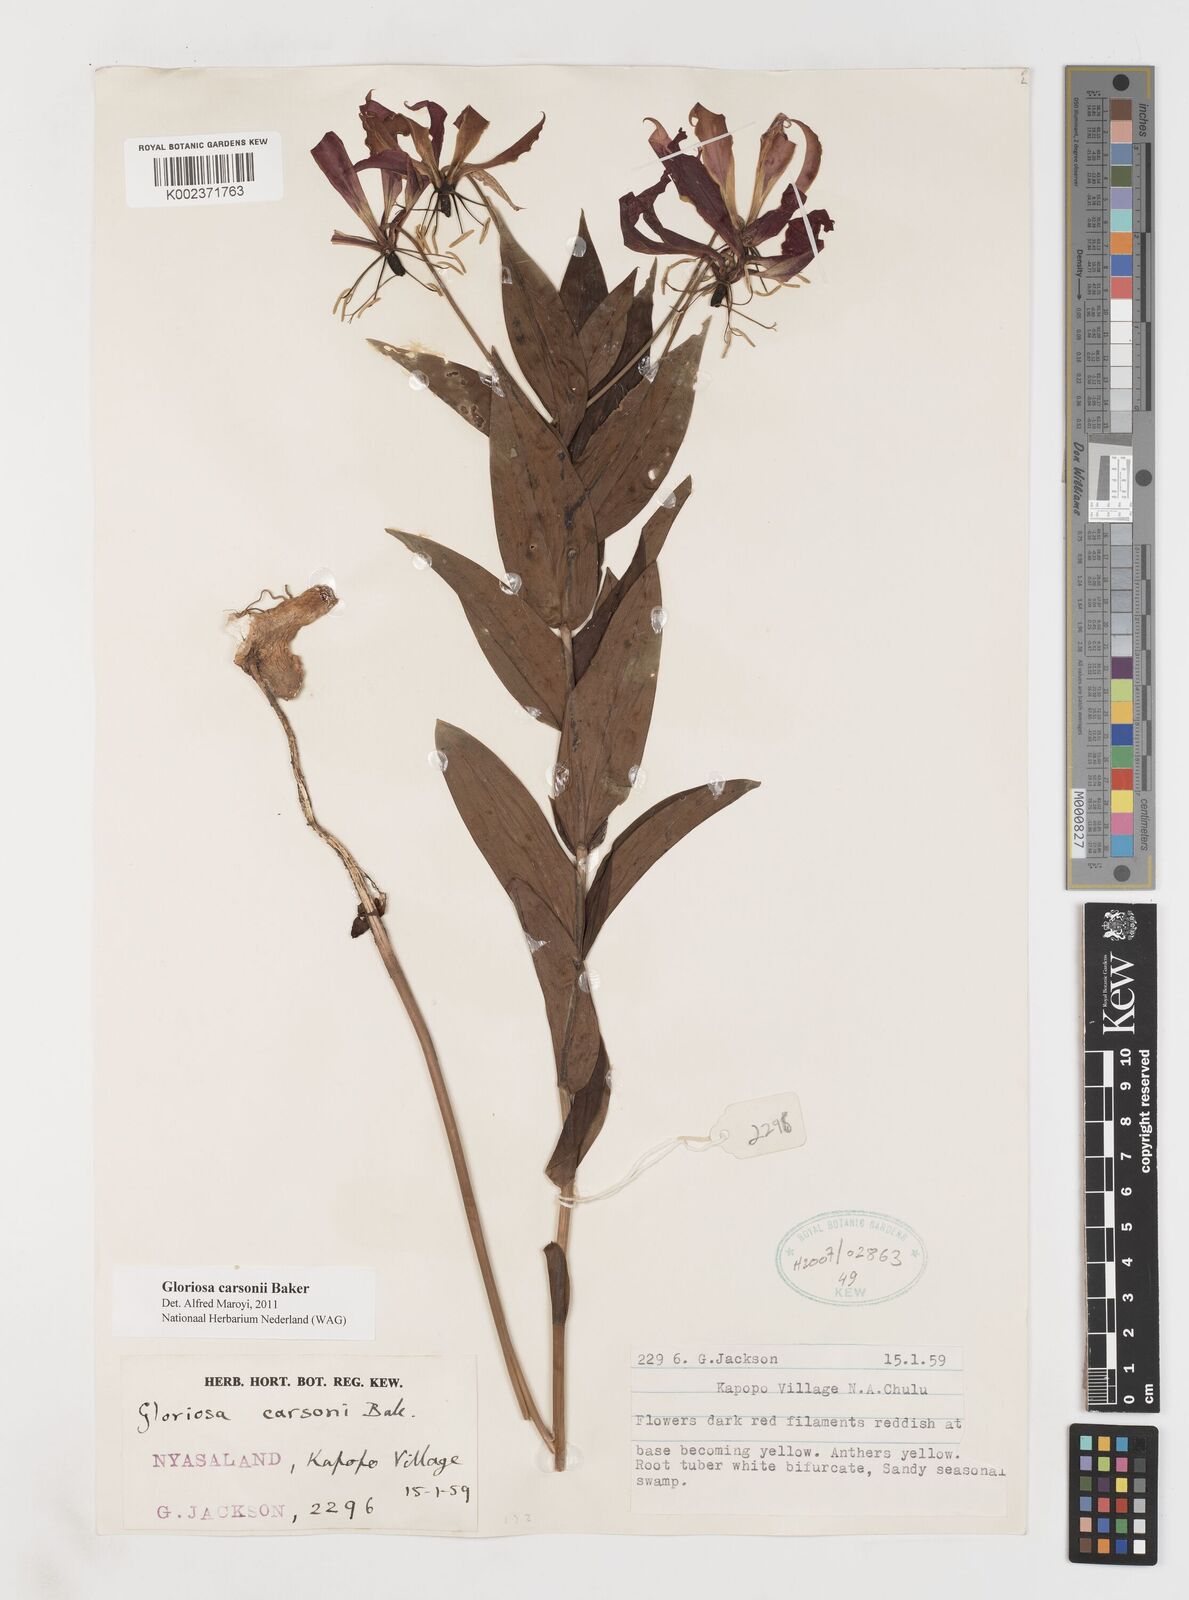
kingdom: Plantae
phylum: Tracheophyta
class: Liliopsida
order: Liliales
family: Colchicaceae
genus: Gloriosa
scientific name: Gloriosa carsonii
